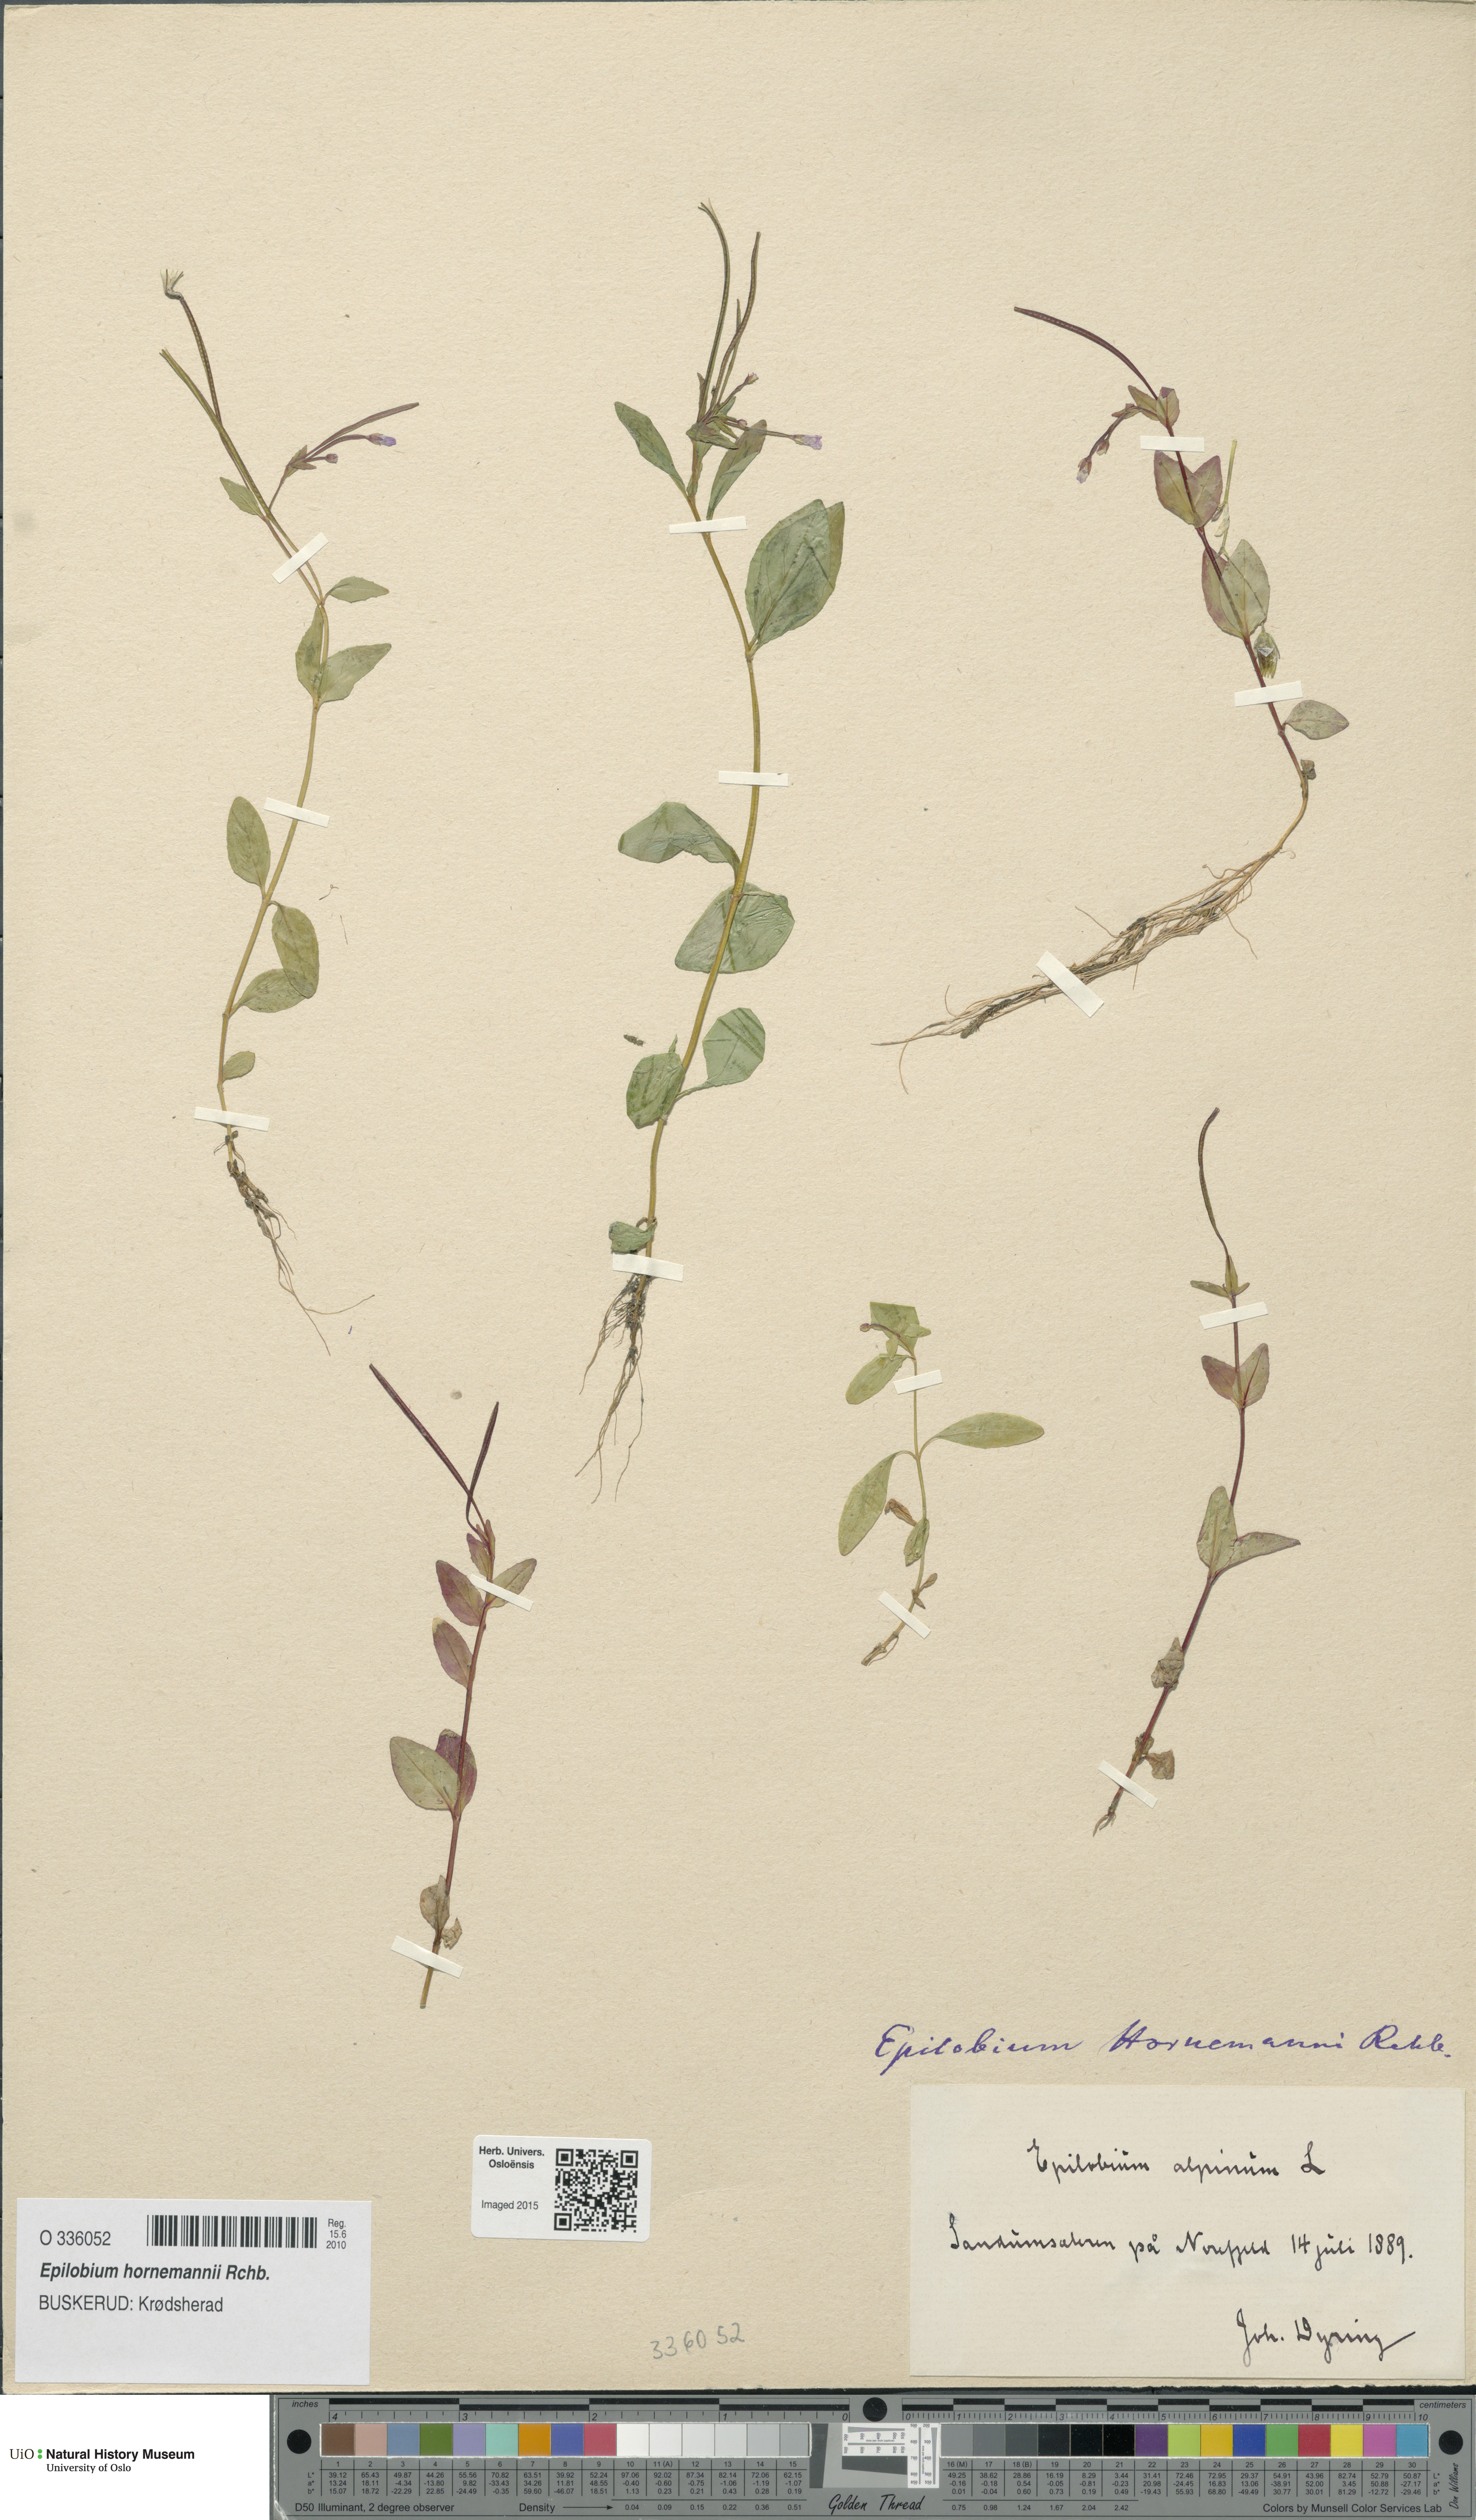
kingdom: Plantae
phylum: Tracheophyta
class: Magnoliopsida
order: Myrtales
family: Onagraceae
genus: Epilobium
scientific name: Epilobium hornemannii
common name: Hornemann's willowherb
